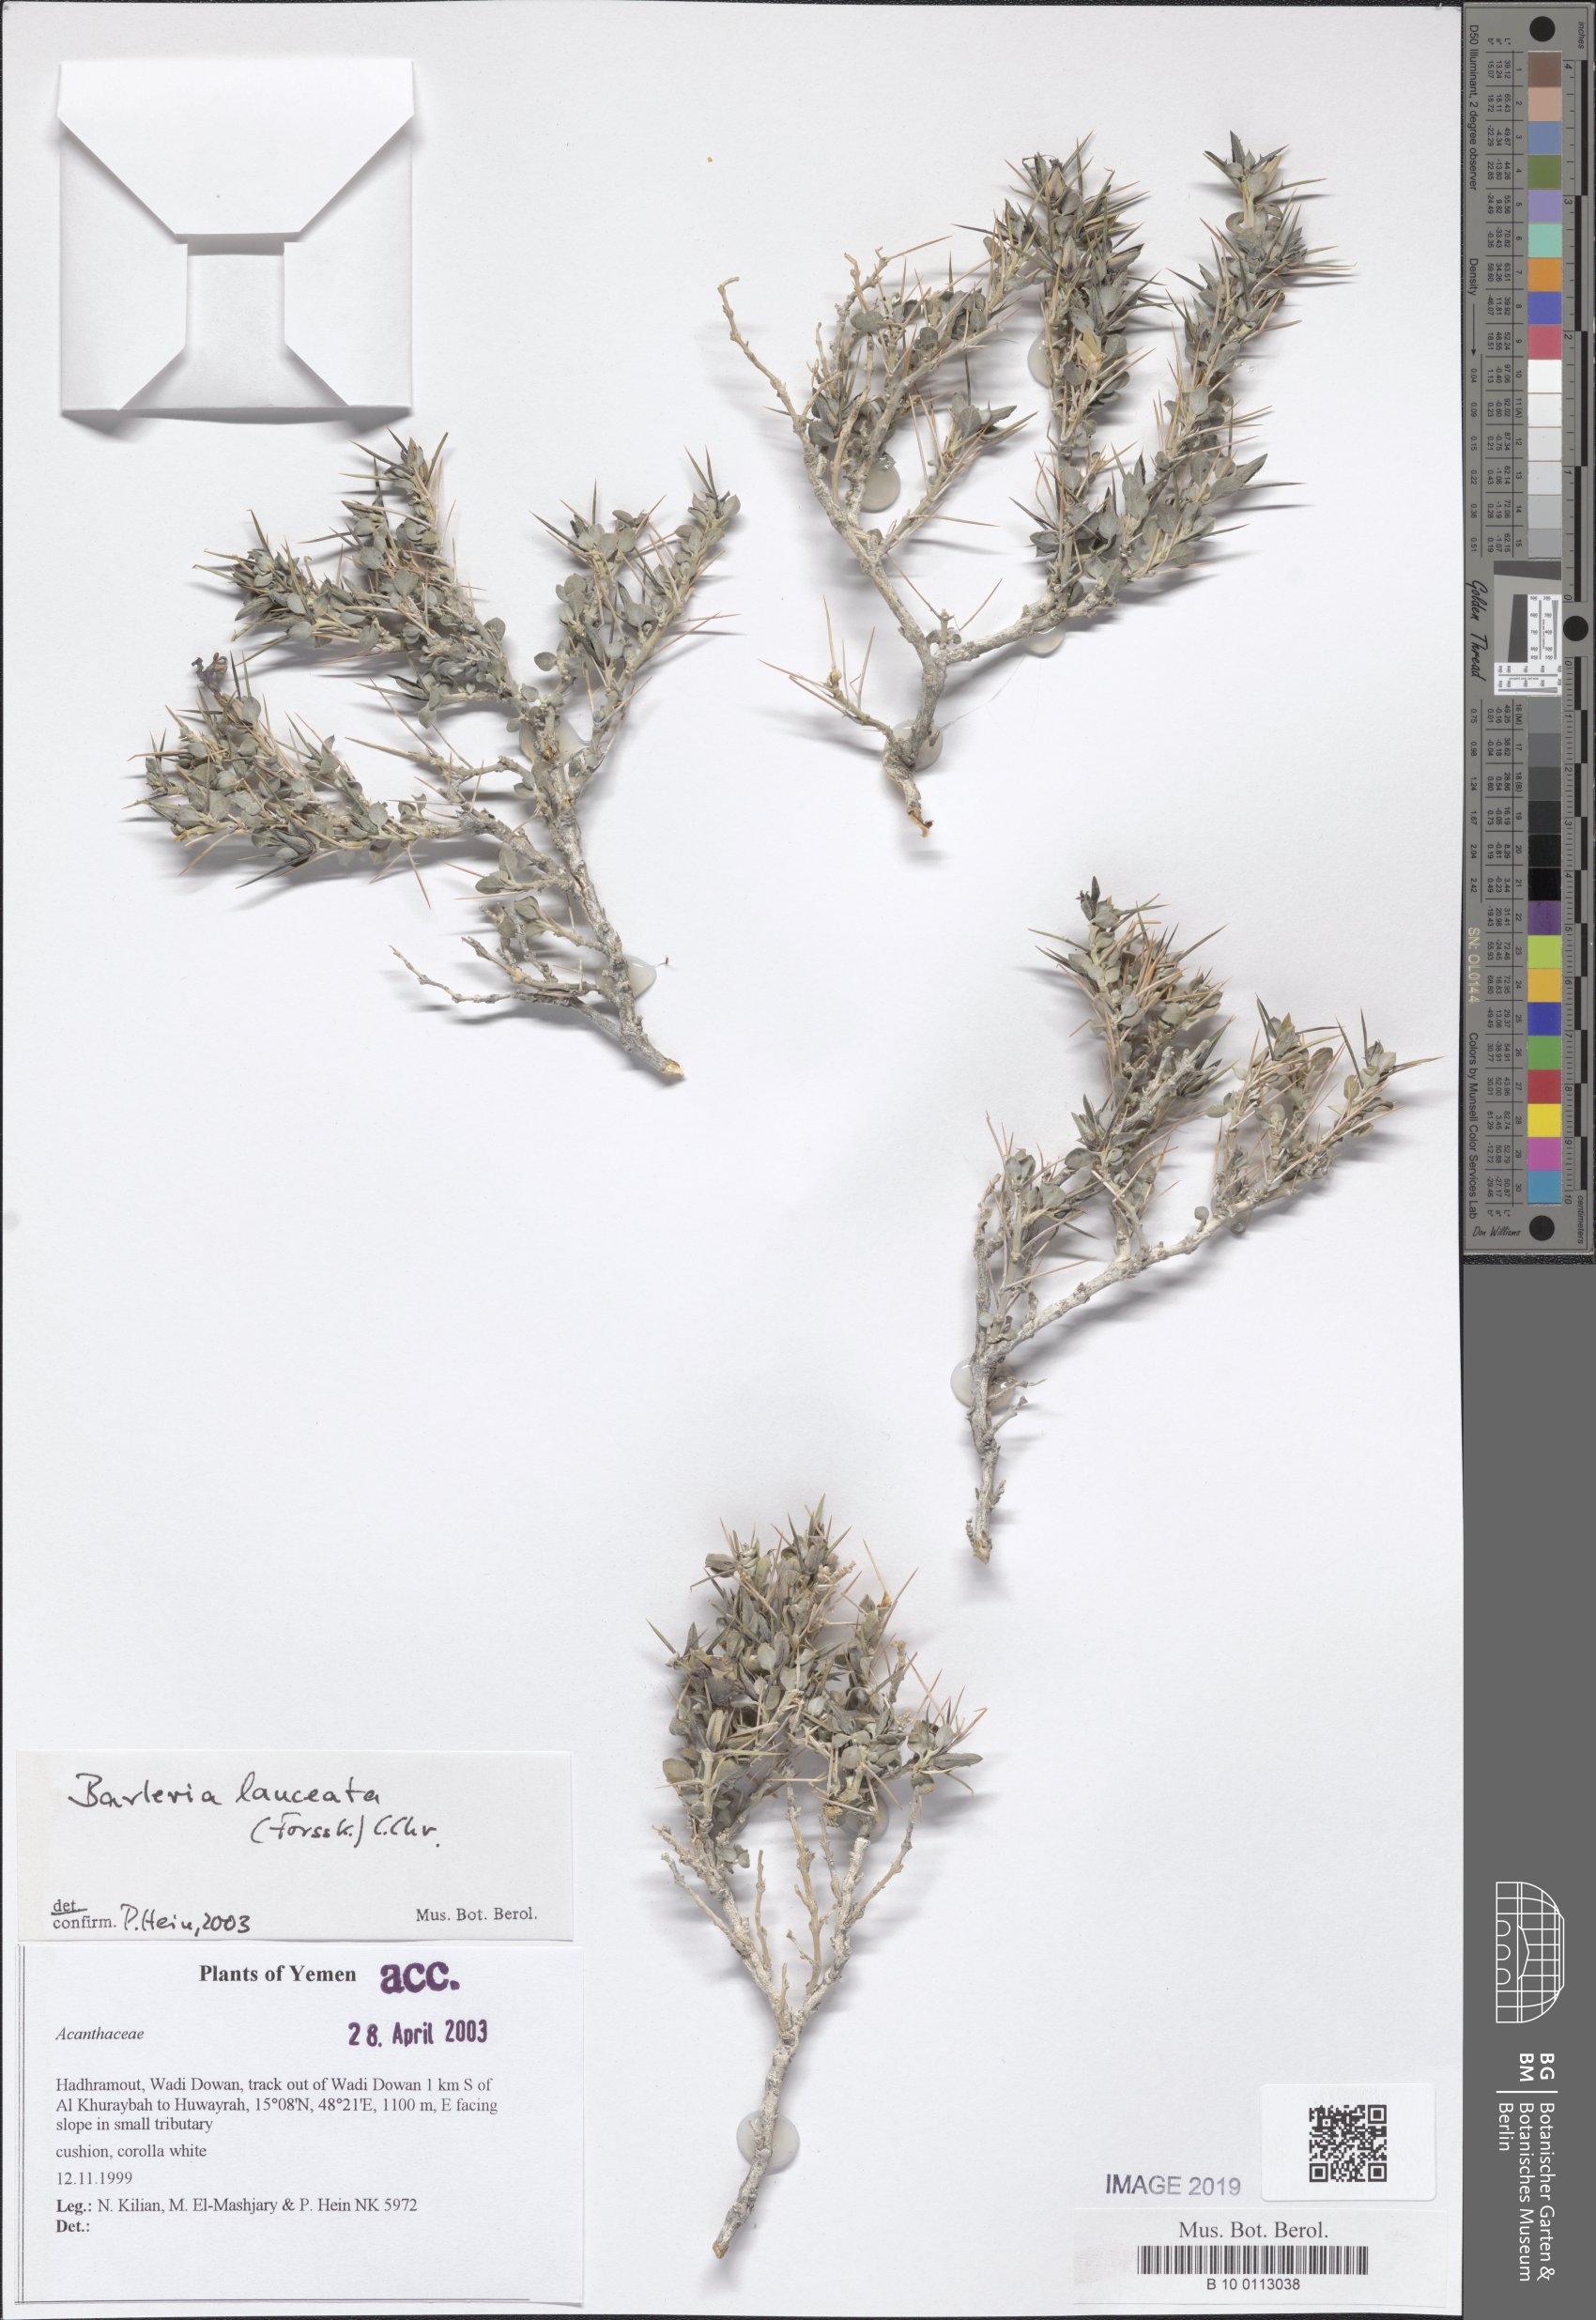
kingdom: Plantae
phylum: Tracheophyta
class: Magnoliopsida
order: Lamiales
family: Acanthaceae
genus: Barleria
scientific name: Barleria lanceata
